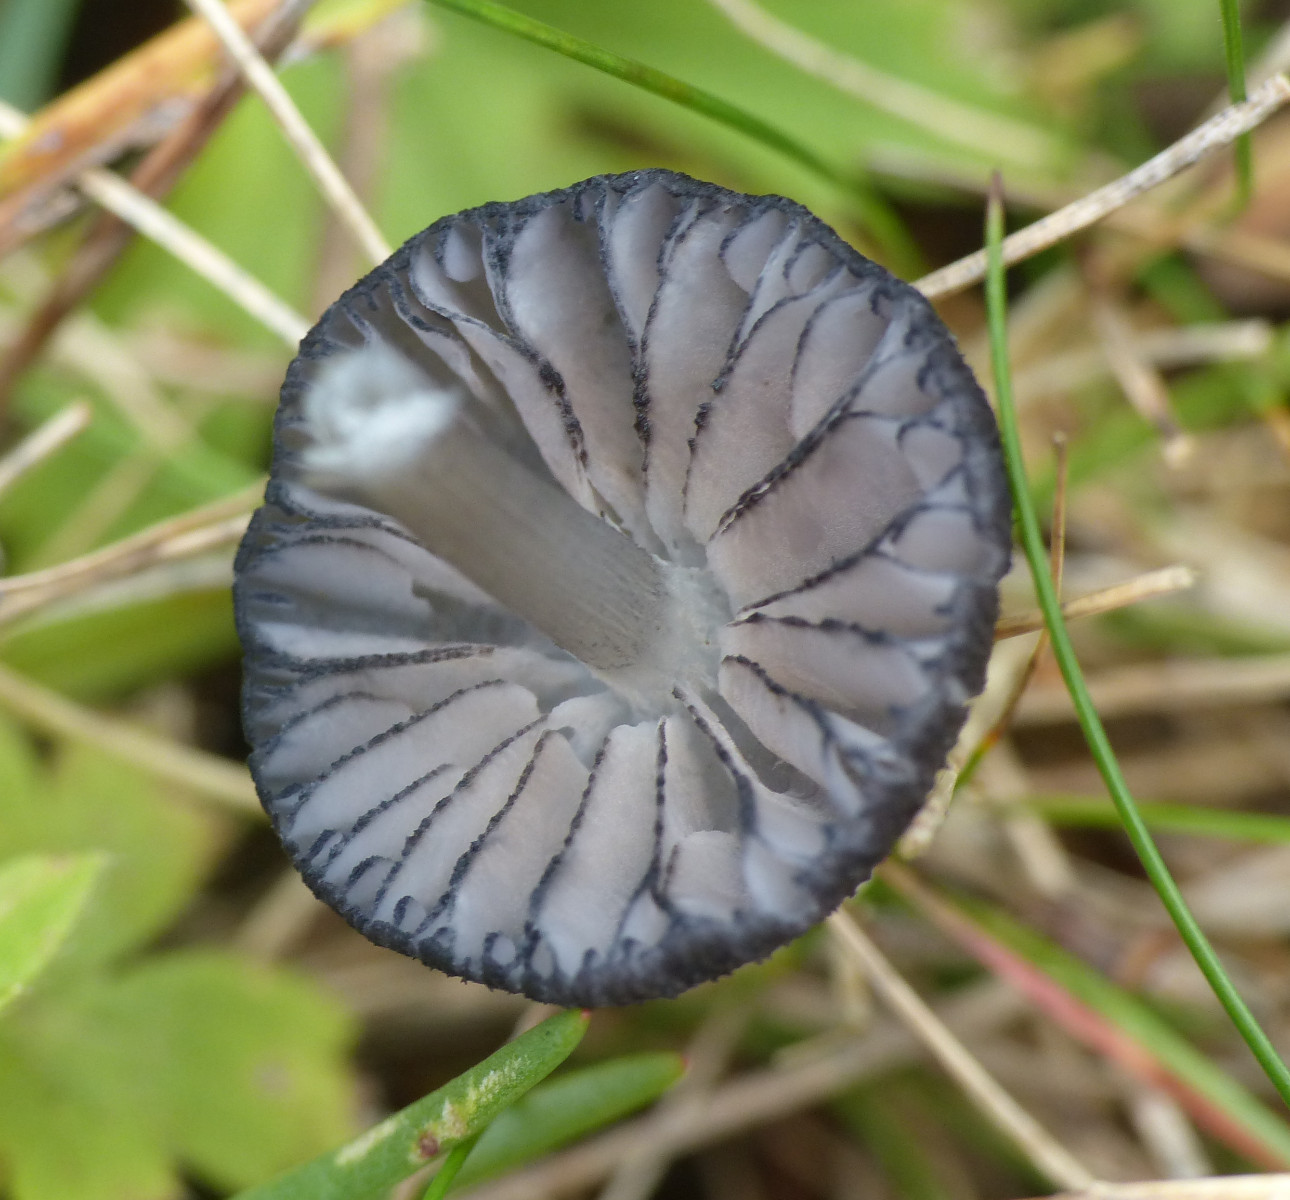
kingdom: Fungi
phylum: Basidiomycota
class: Agaricomycetes
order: Agaricales
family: Entolomataceae
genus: Entoloma
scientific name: Entoloma
